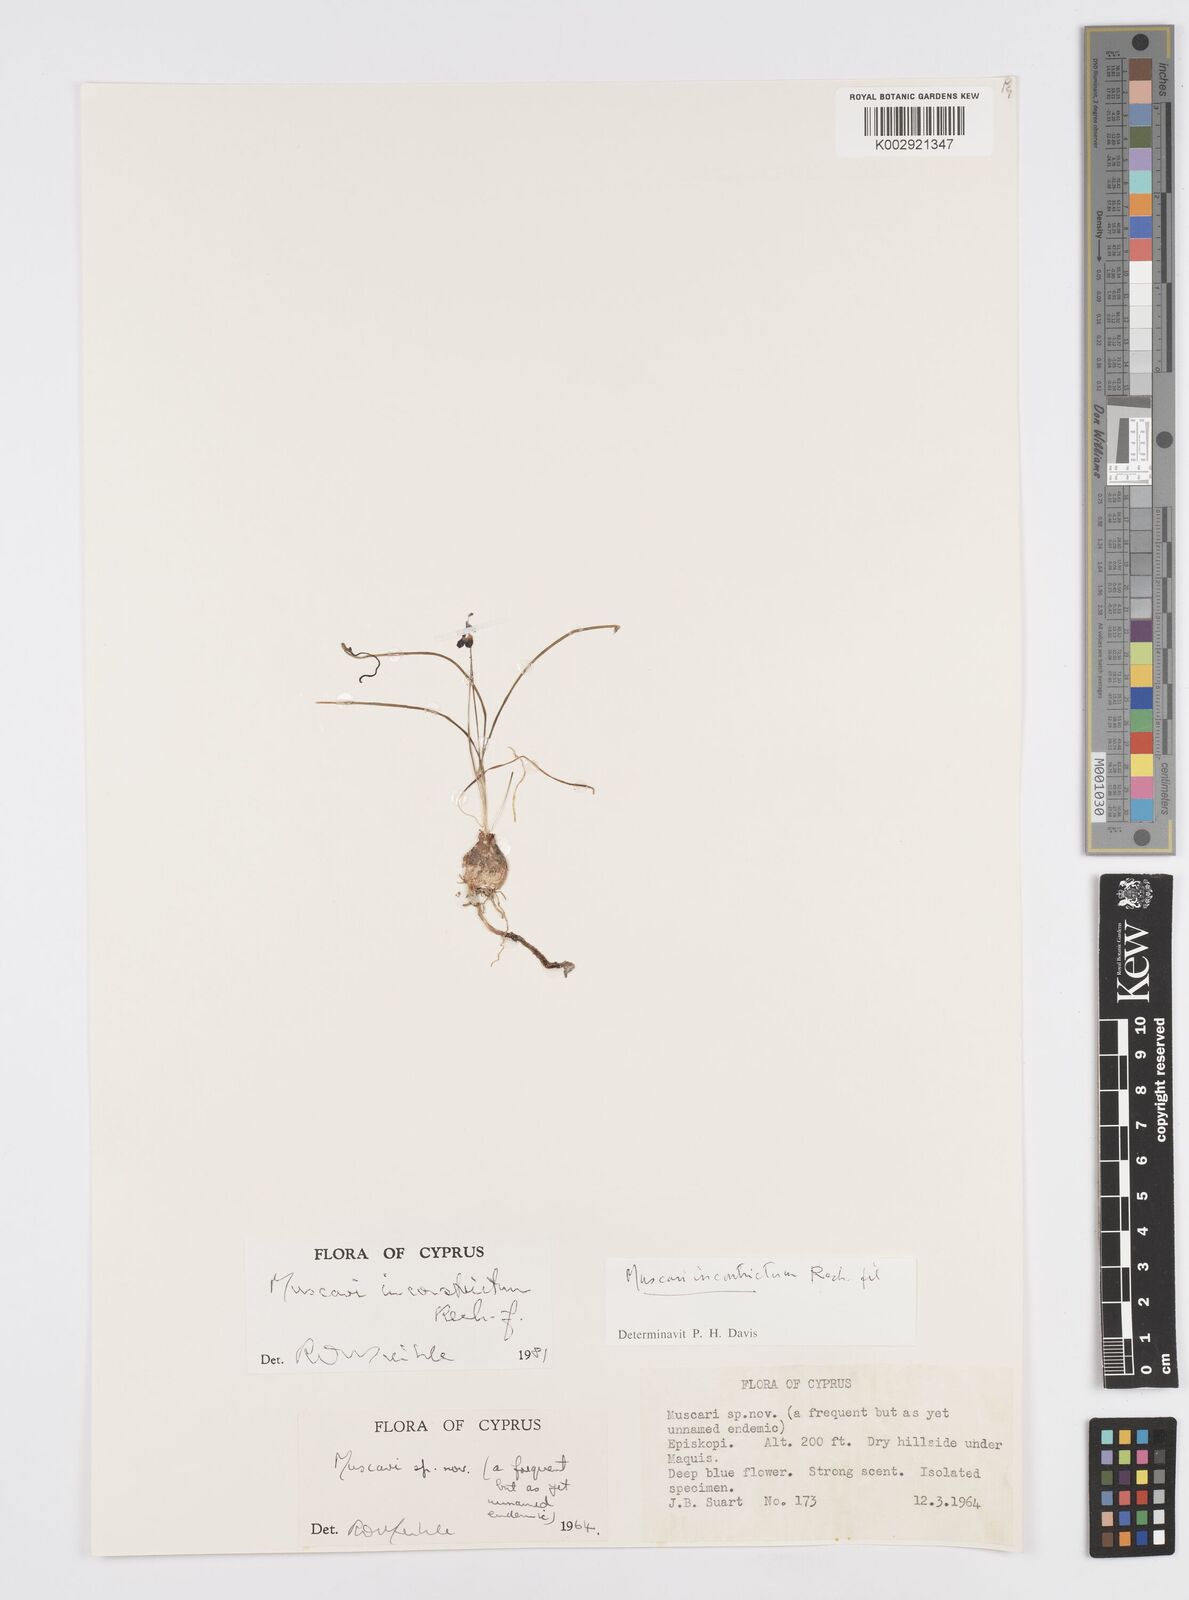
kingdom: Plantae
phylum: Tracheophyta
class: Liliopsida
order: Asparagales
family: Asparagaceae
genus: Muscari
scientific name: Muscari inconstrictum
